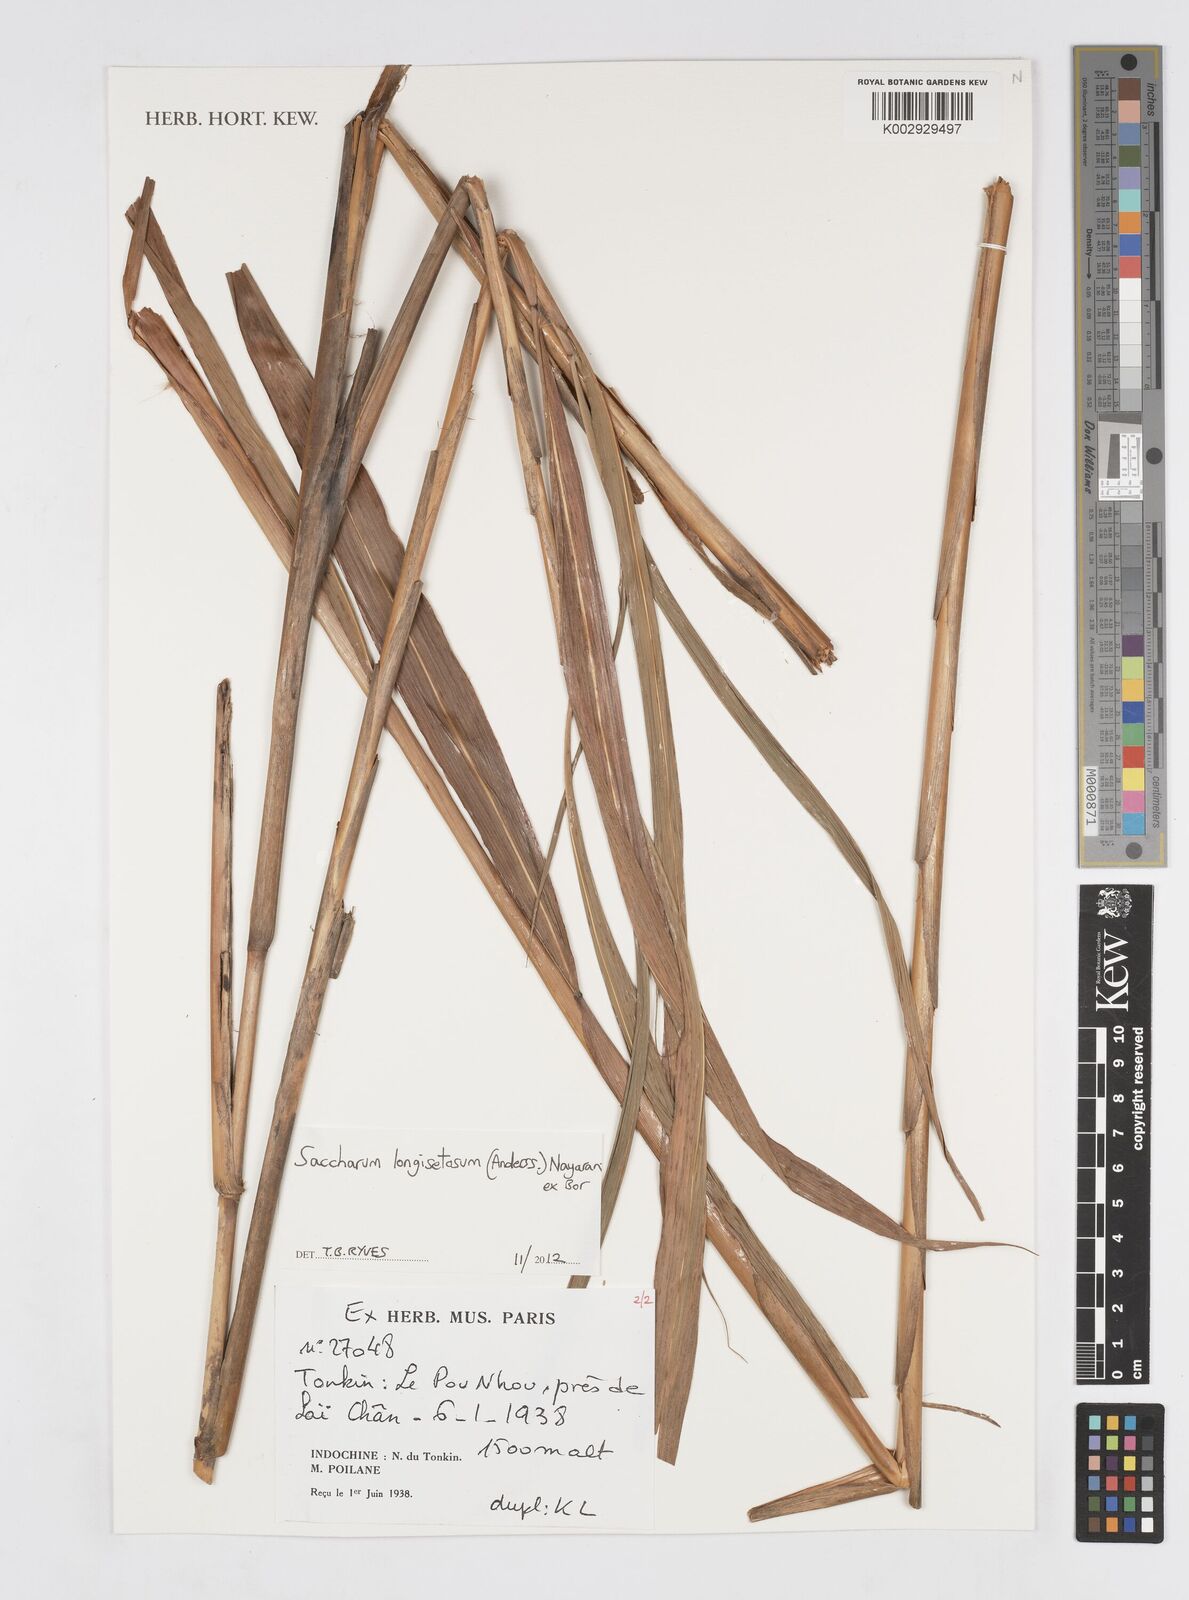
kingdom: Plantae
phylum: Tracheophyta
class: Liliopsida
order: Poales
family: Poaceae
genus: Saccharum
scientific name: Saccharum longesetosum
